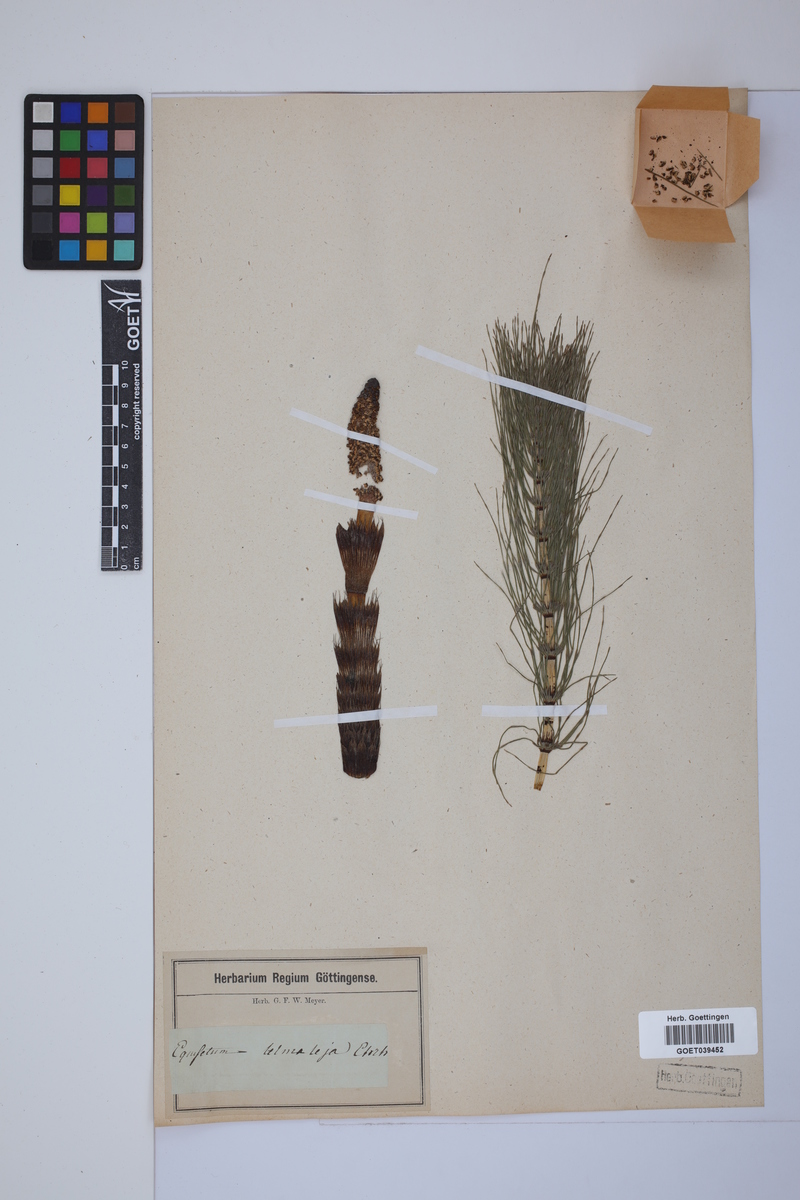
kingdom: Plantae
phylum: Tracheophyta
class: Polypodiopsida
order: Equisetales
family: Equisetaceae
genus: Equisetum
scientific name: Equisetum telmateia
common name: Great horsetail
